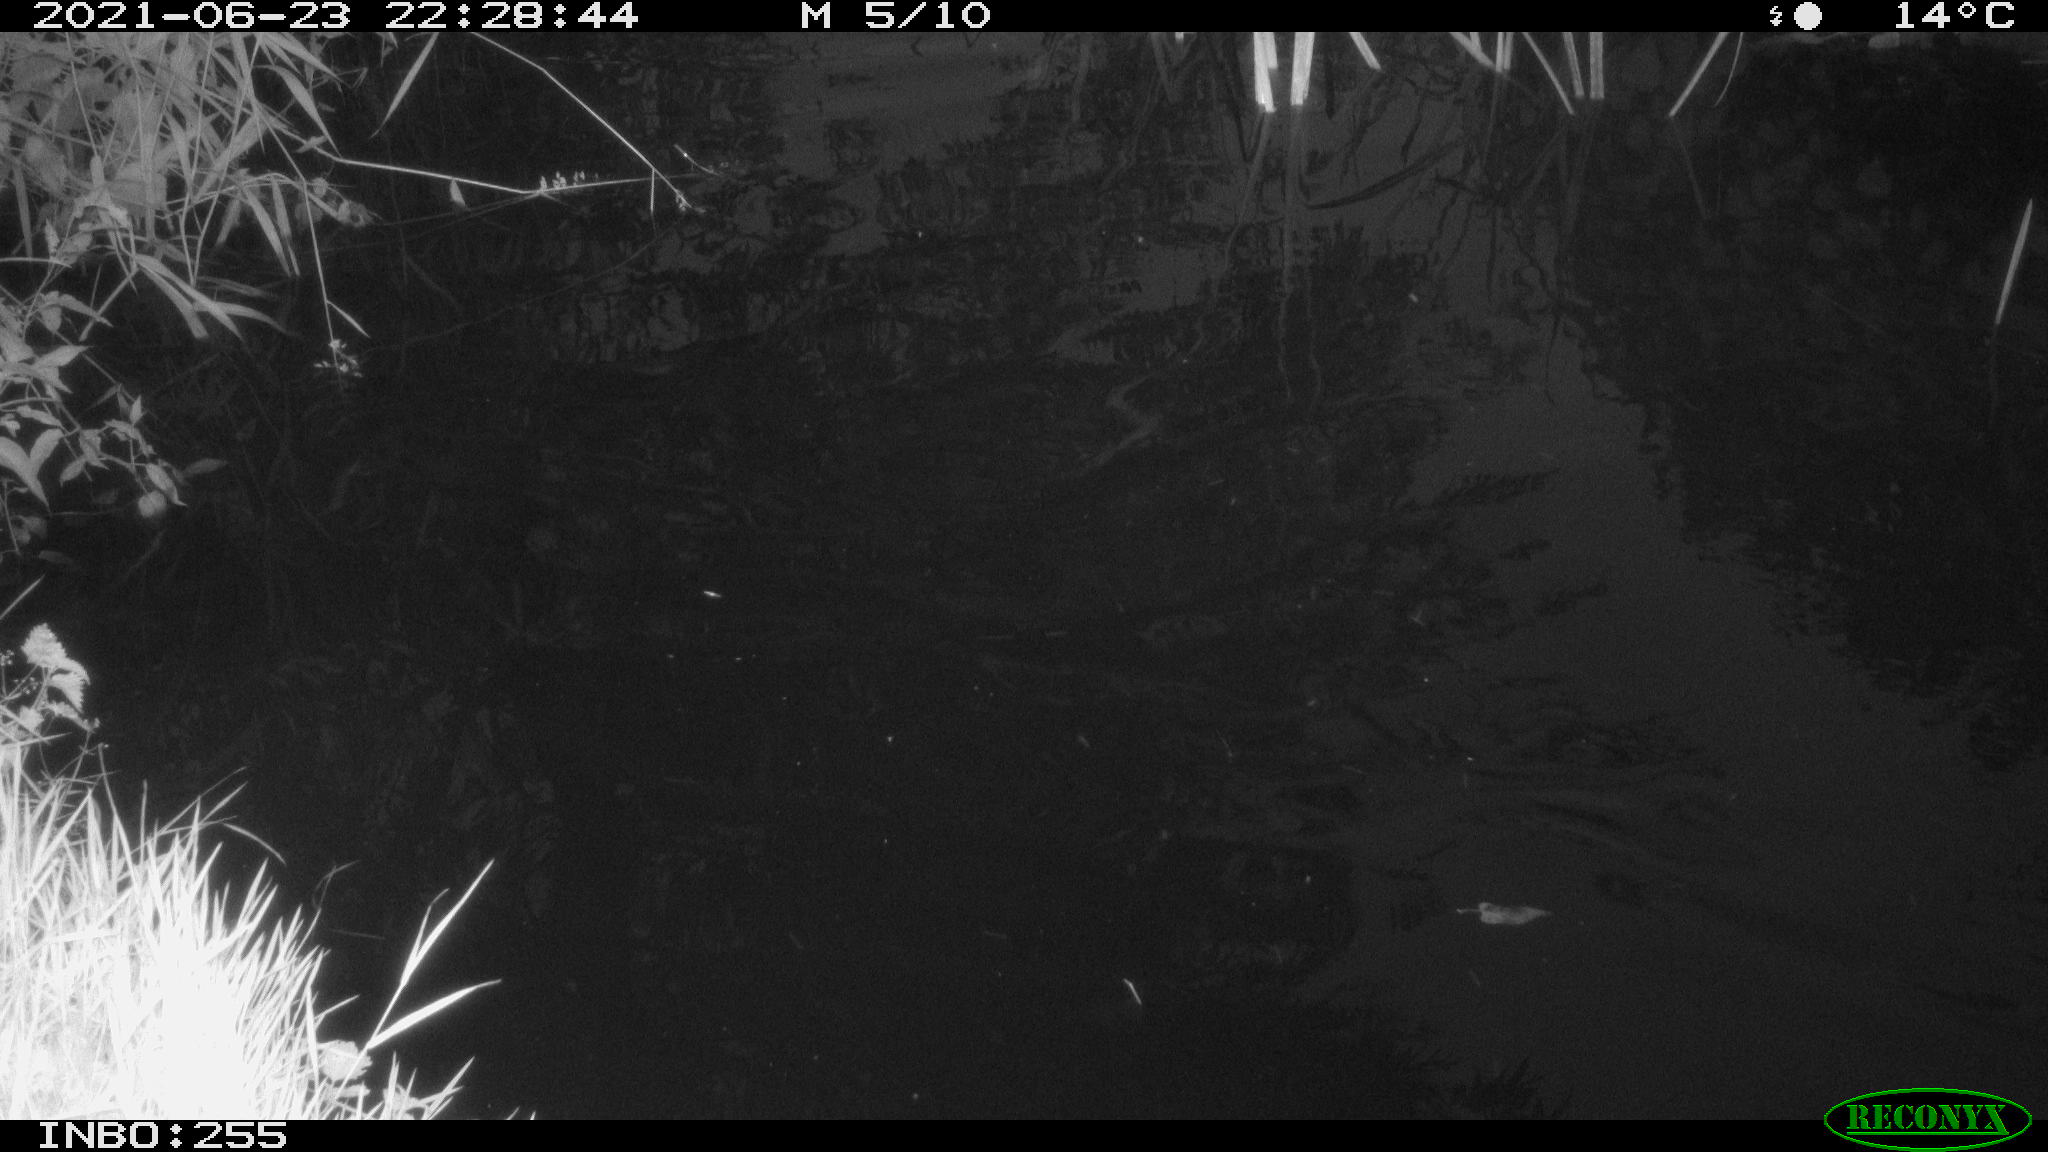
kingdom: Animalia
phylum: Chordata
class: Aves
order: Anseriformes
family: Anatidae
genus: Anas
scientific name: Anas platyrhynchos
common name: Mallard
